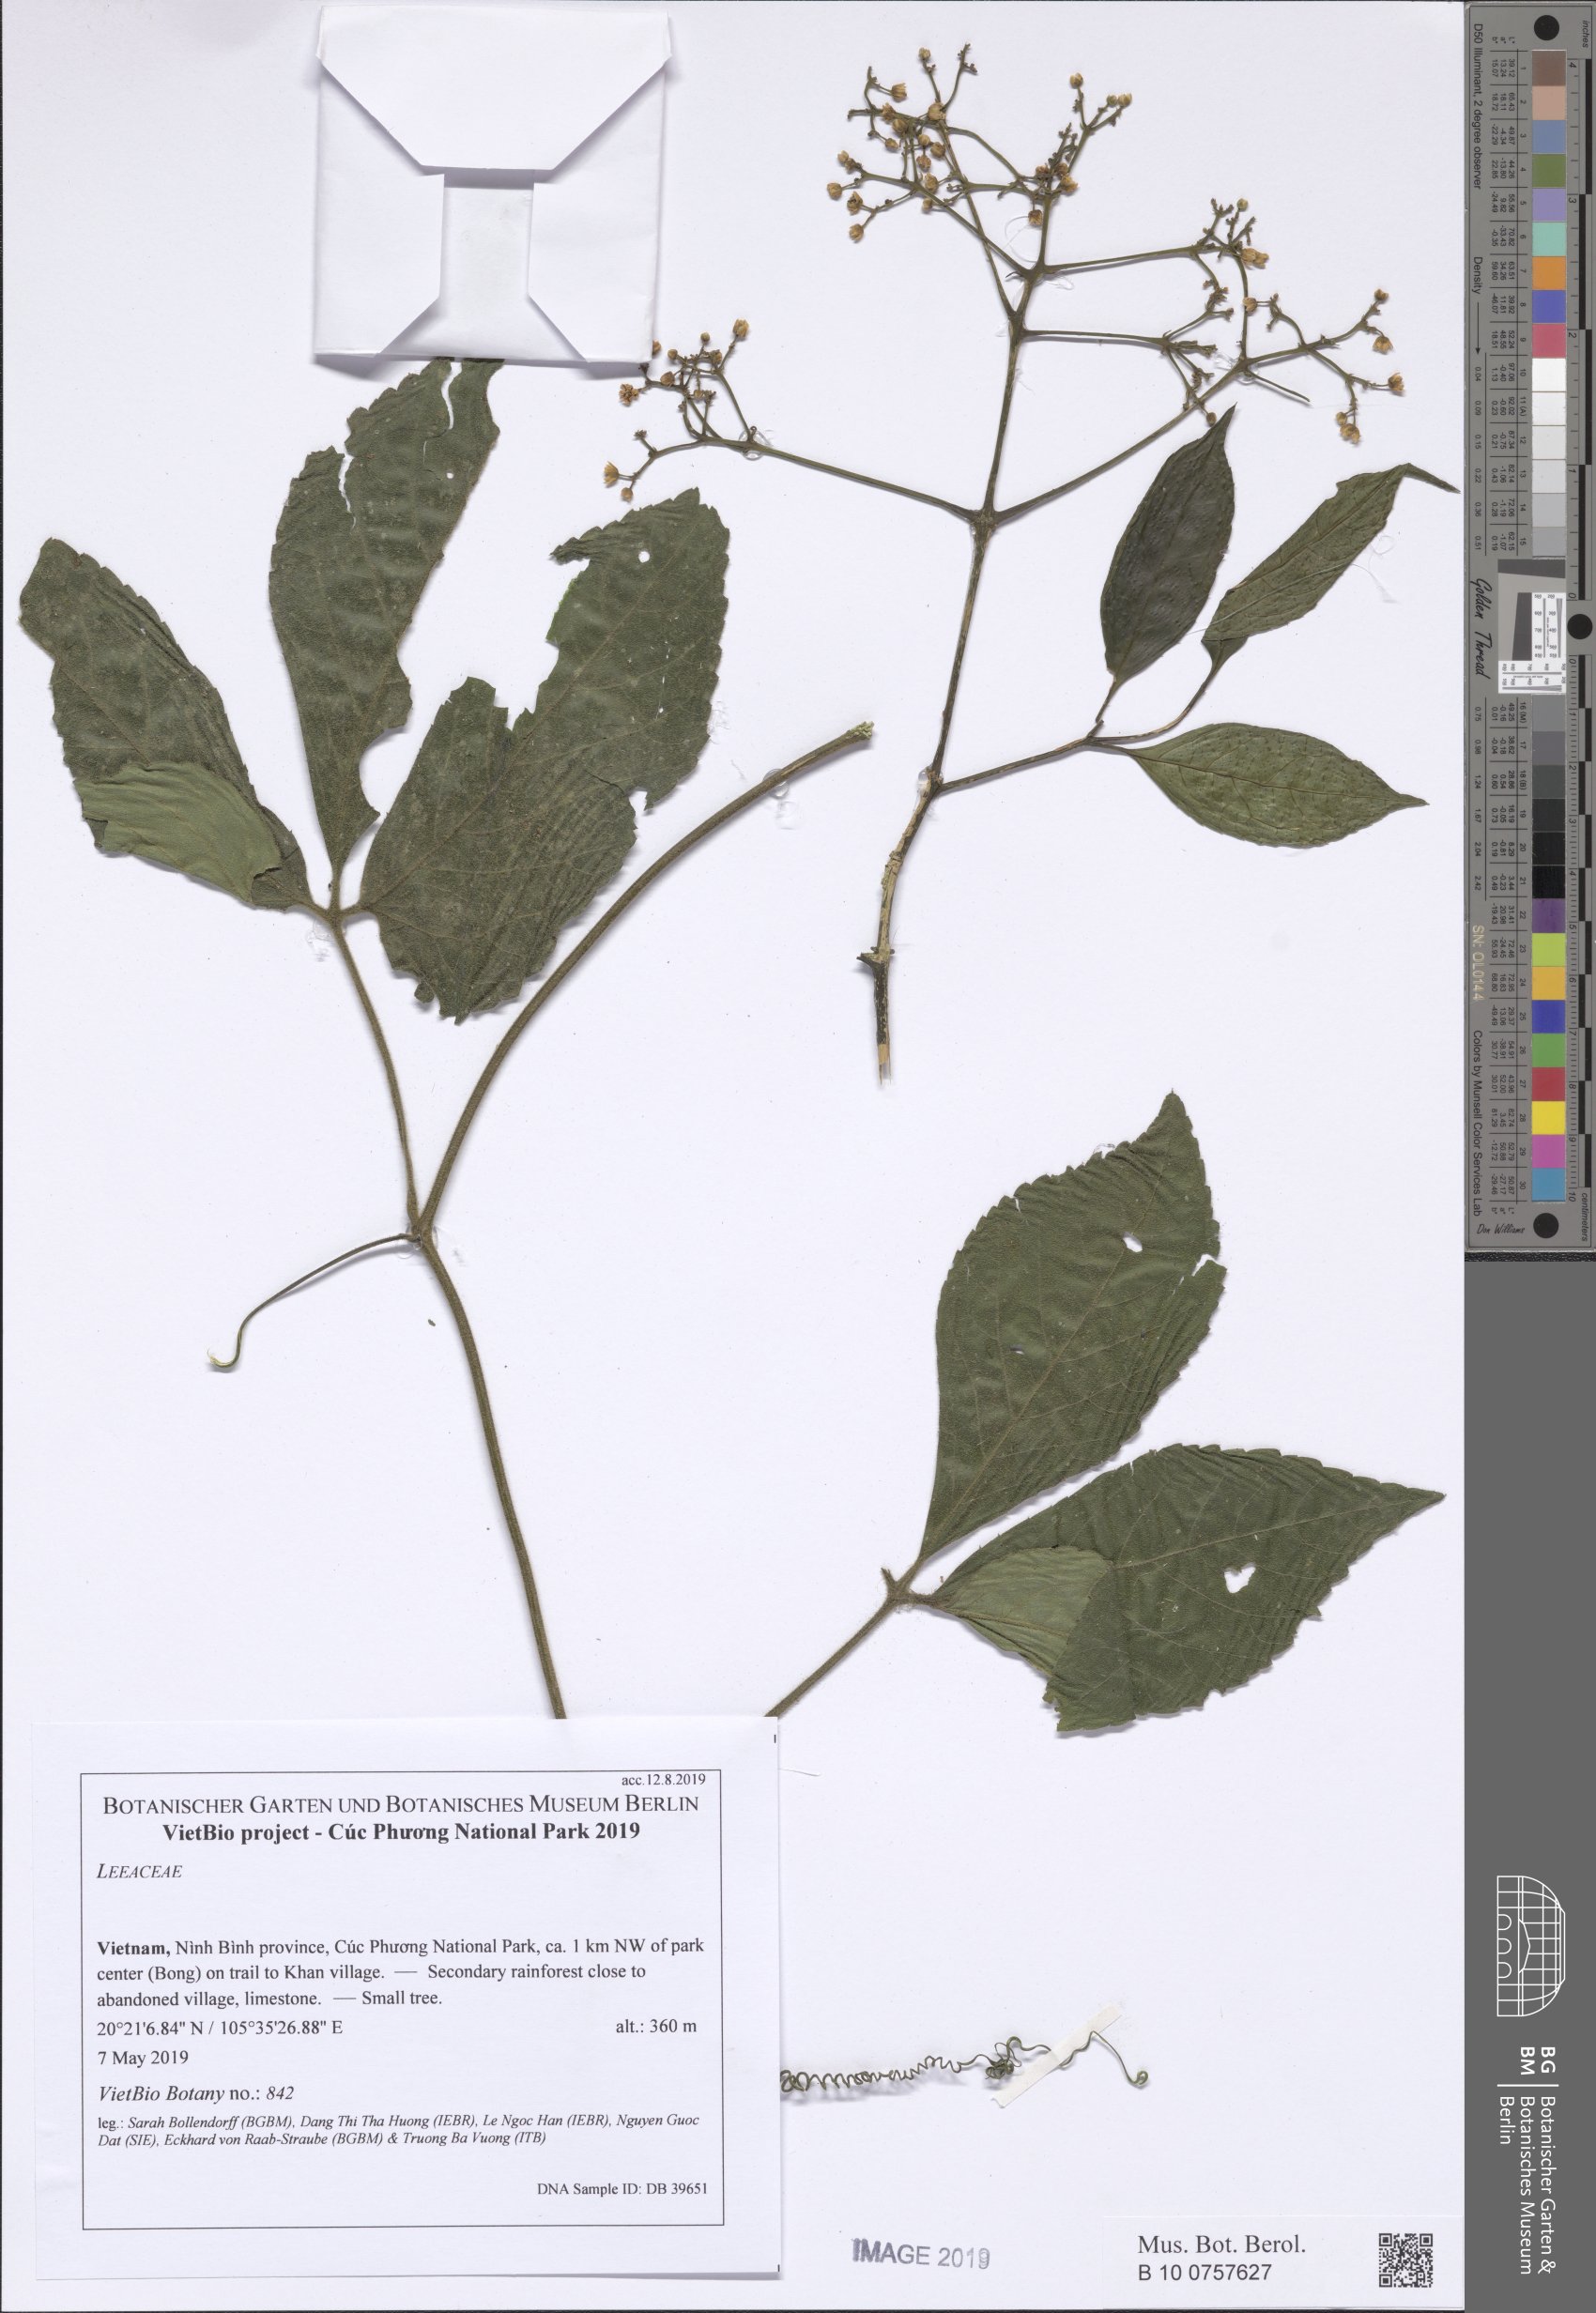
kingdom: Plantae
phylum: Tracheophyta
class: Magnoliopsida
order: Vitales
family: Vitaceae
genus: Leea
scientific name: Leea
